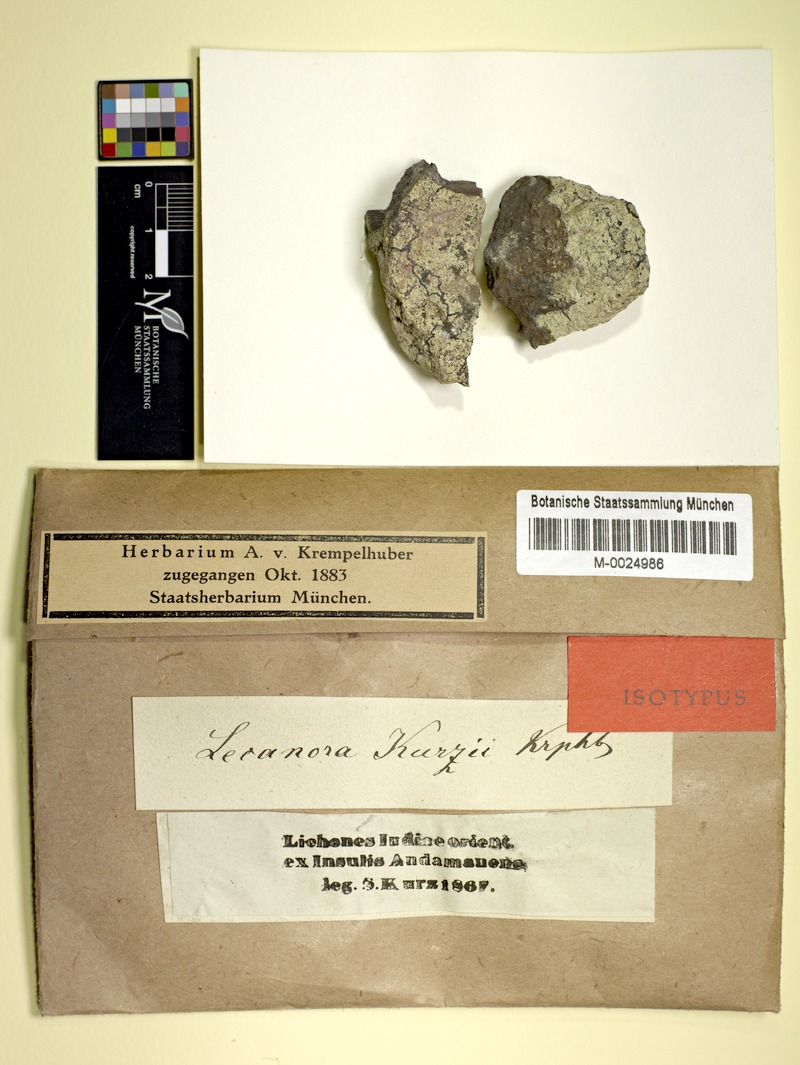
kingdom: Fungi
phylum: Ascomycota
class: Lecanoromycetes
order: Teloschistales
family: Teloschistaceae
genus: Caloplaca
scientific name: Caloplaca kurzii
